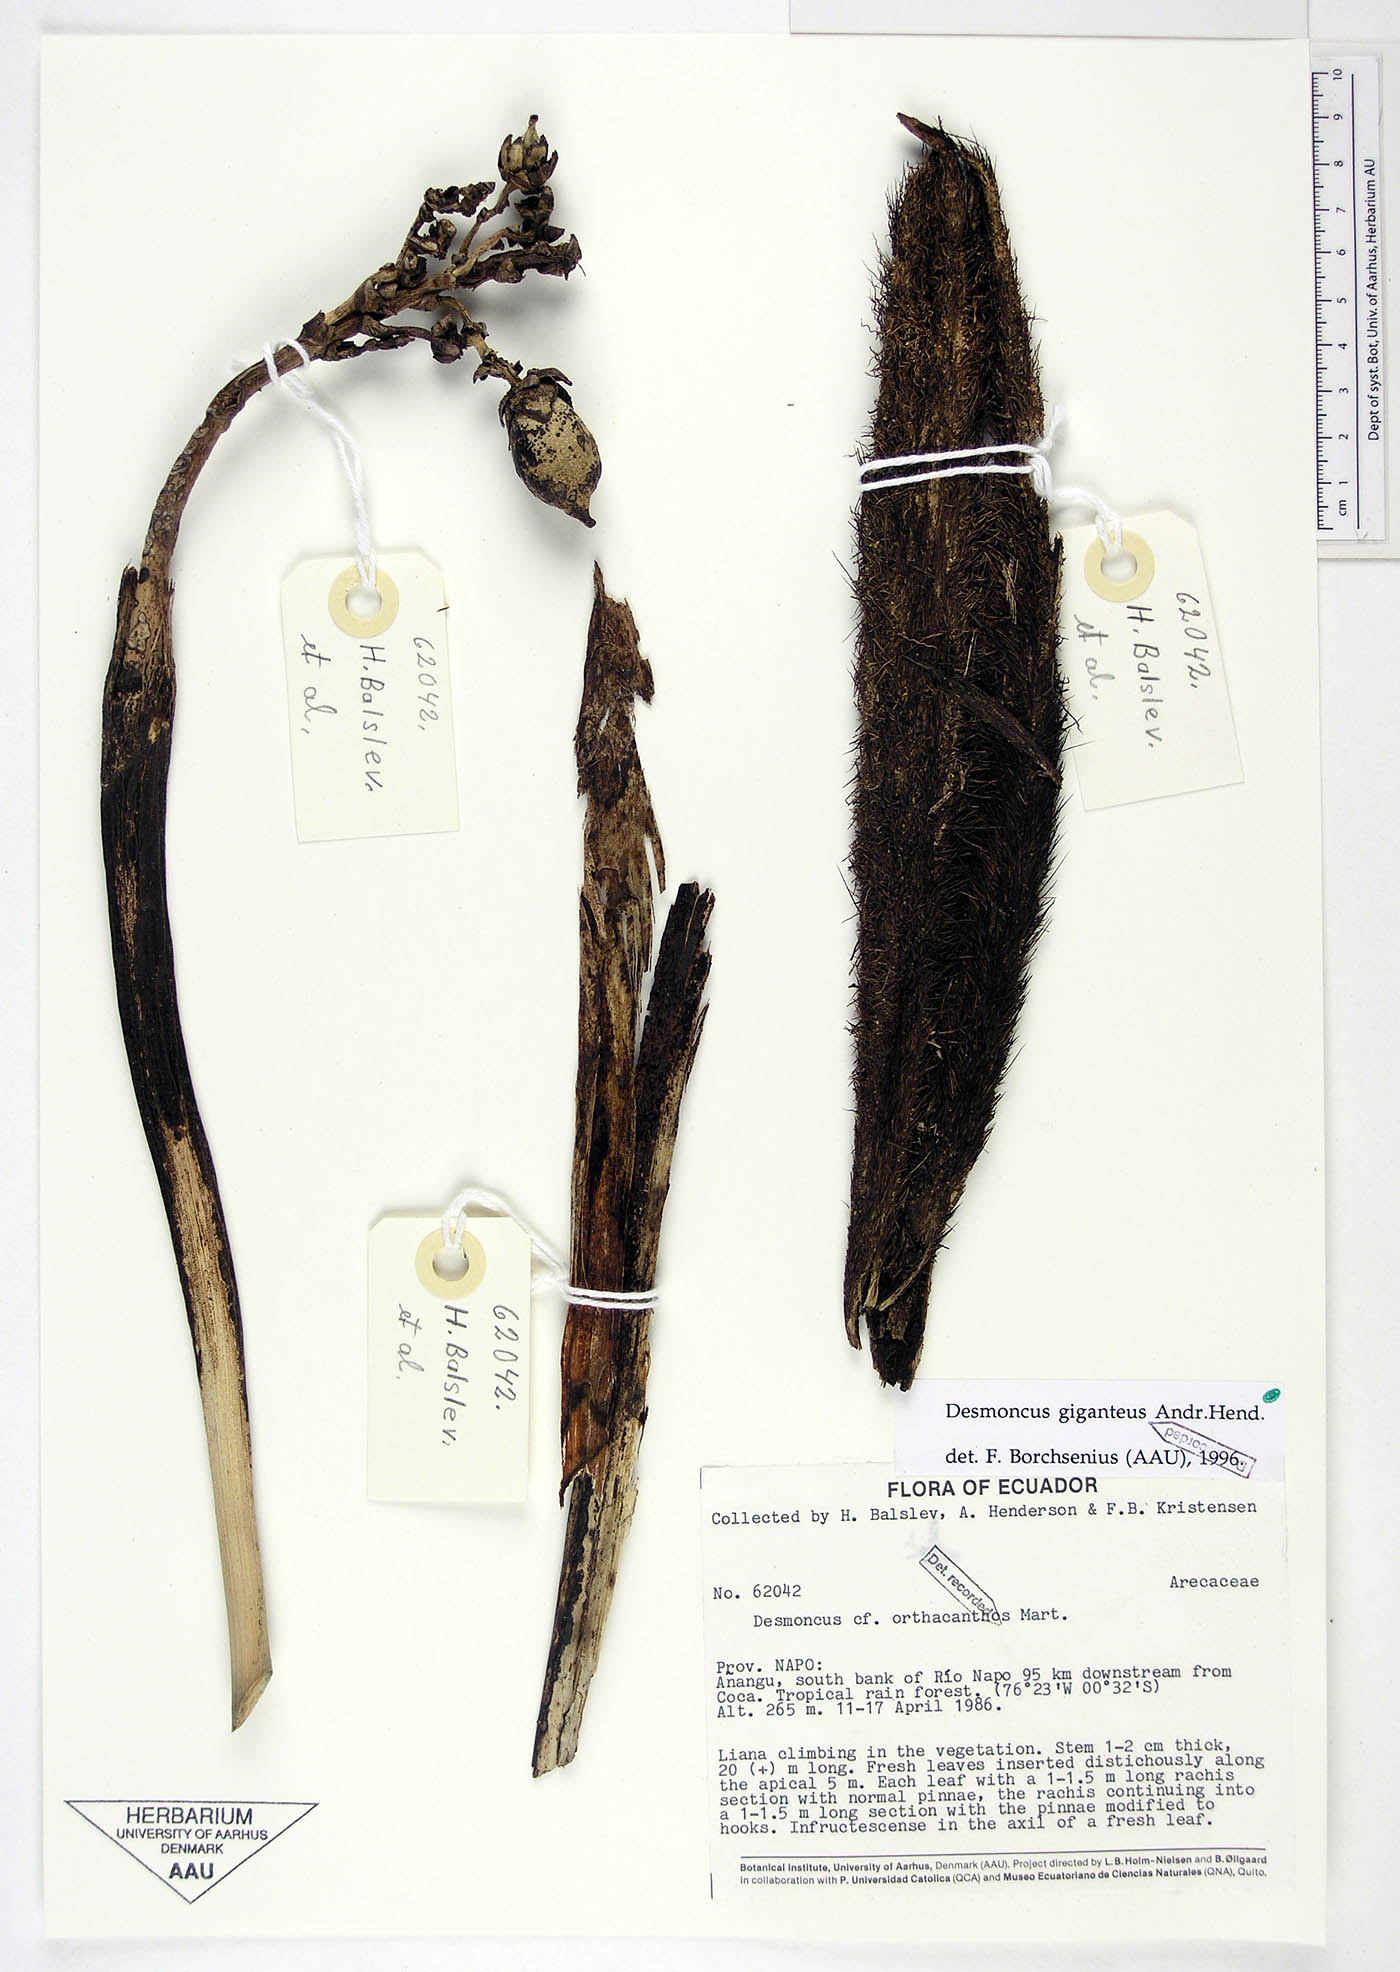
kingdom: Plantae
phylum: Tracheophyta
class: Liliopsida
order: Arecales
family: Arecaceae
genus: Desmoncus
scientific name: Desmoncus giganteus
